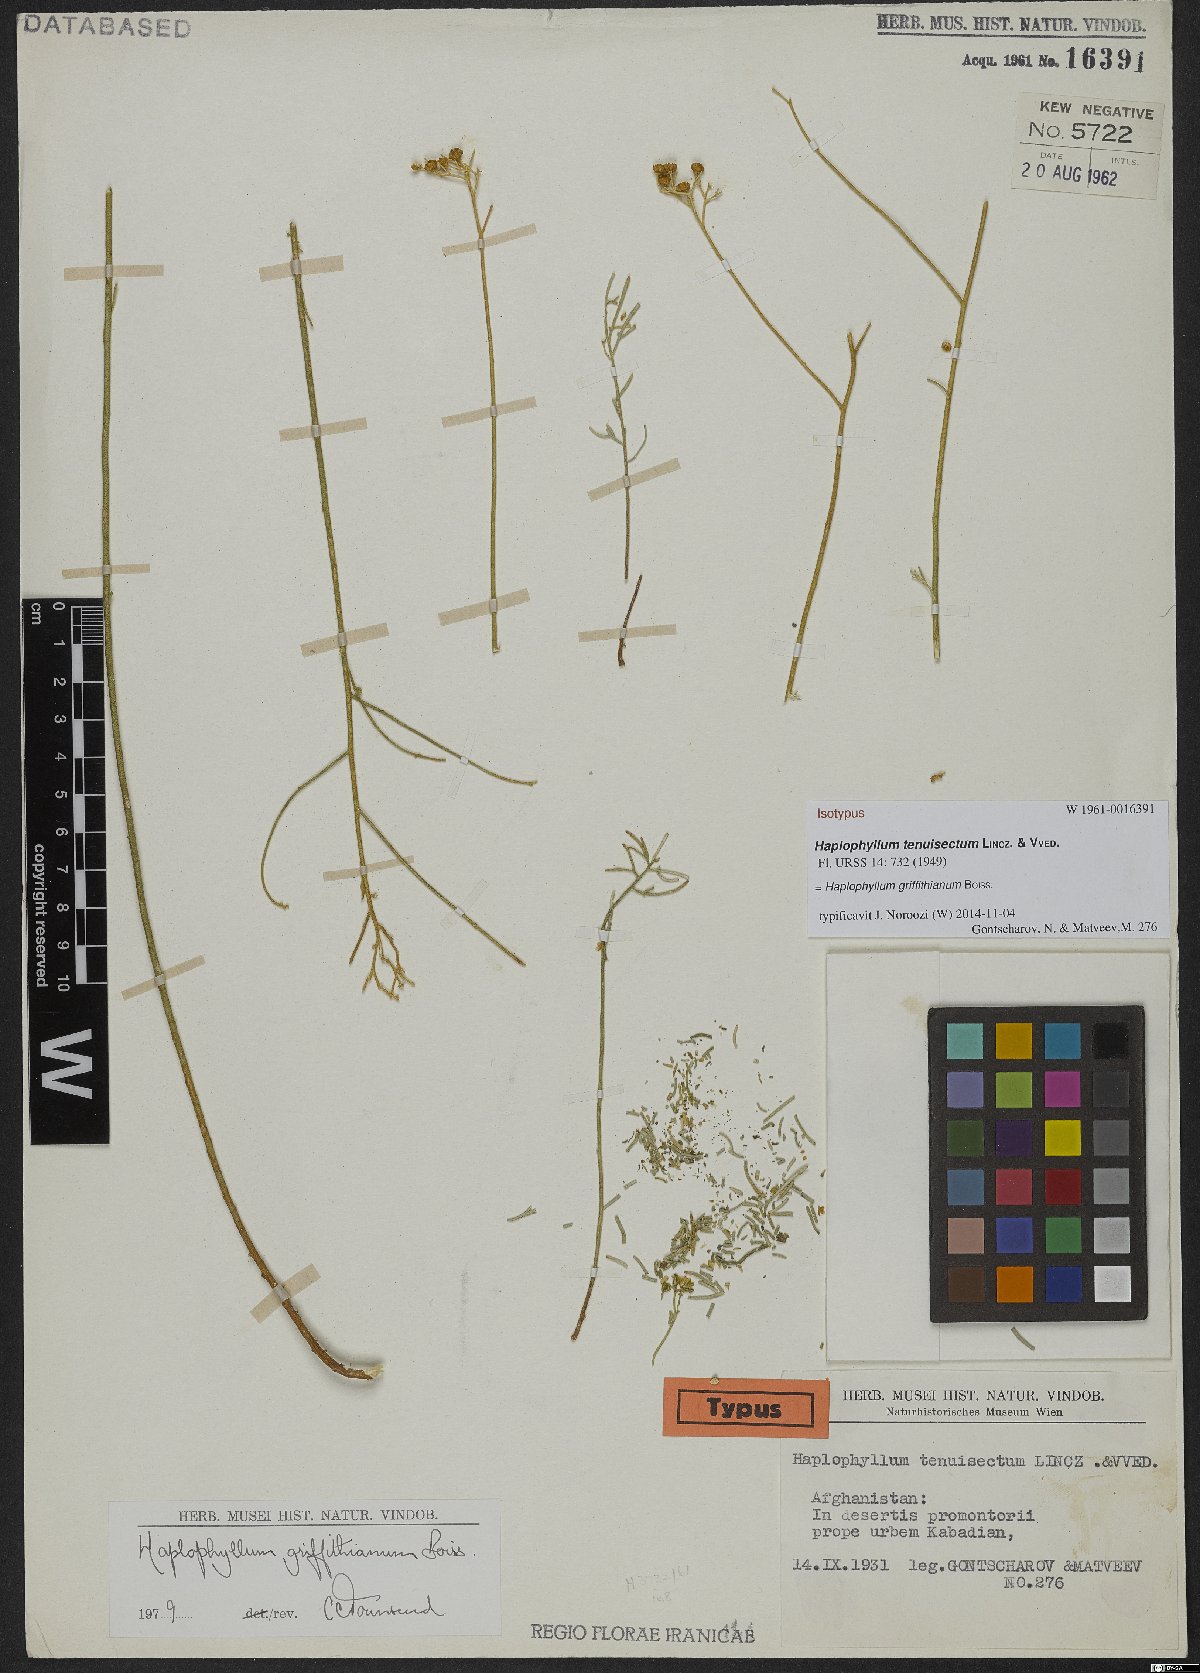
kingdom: Plantae
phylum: Tracheophyta
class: Magnoliopsida
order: Sapindales
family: Rutaceae
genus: Haplophyllum
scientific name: Haplophyllum griffithianum
